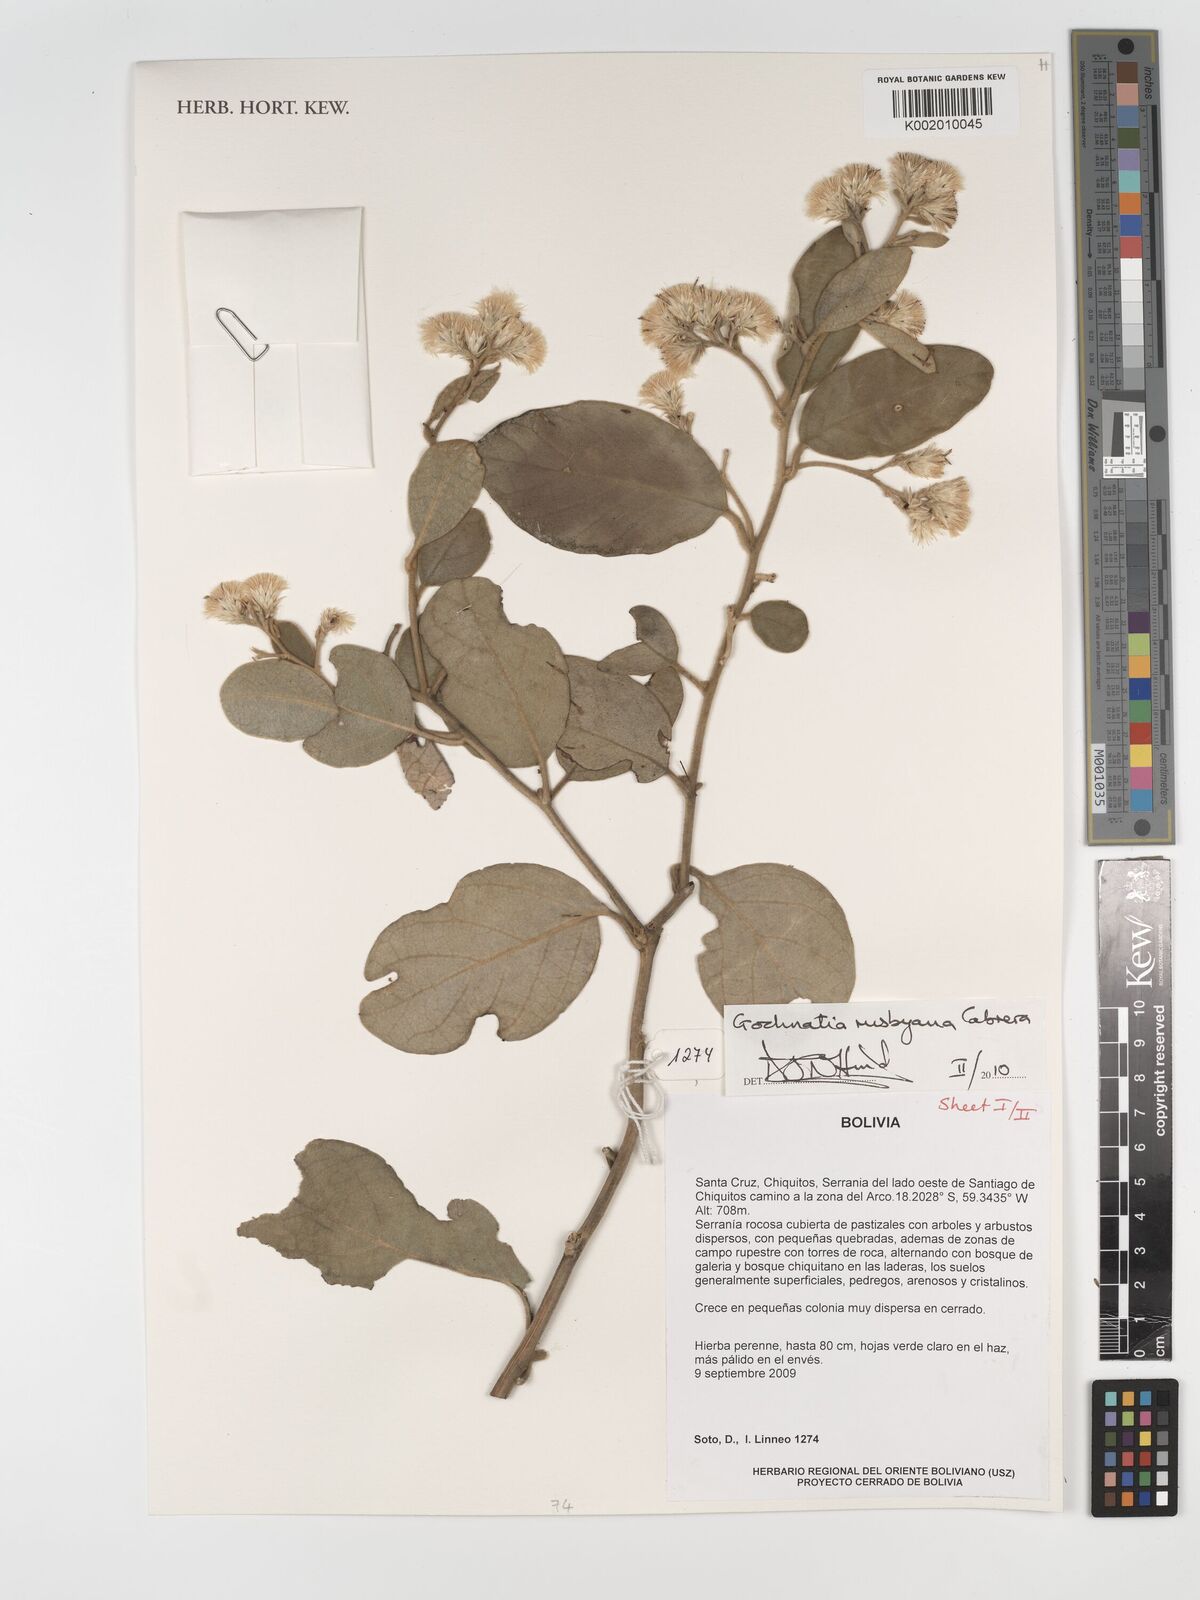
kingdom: Plantae
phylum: Tracheophyta
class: Magnoliopsida
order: Asterales
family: Asteraceae
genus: Moquiniastrum
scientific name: Moquiniastrum bolivianum
